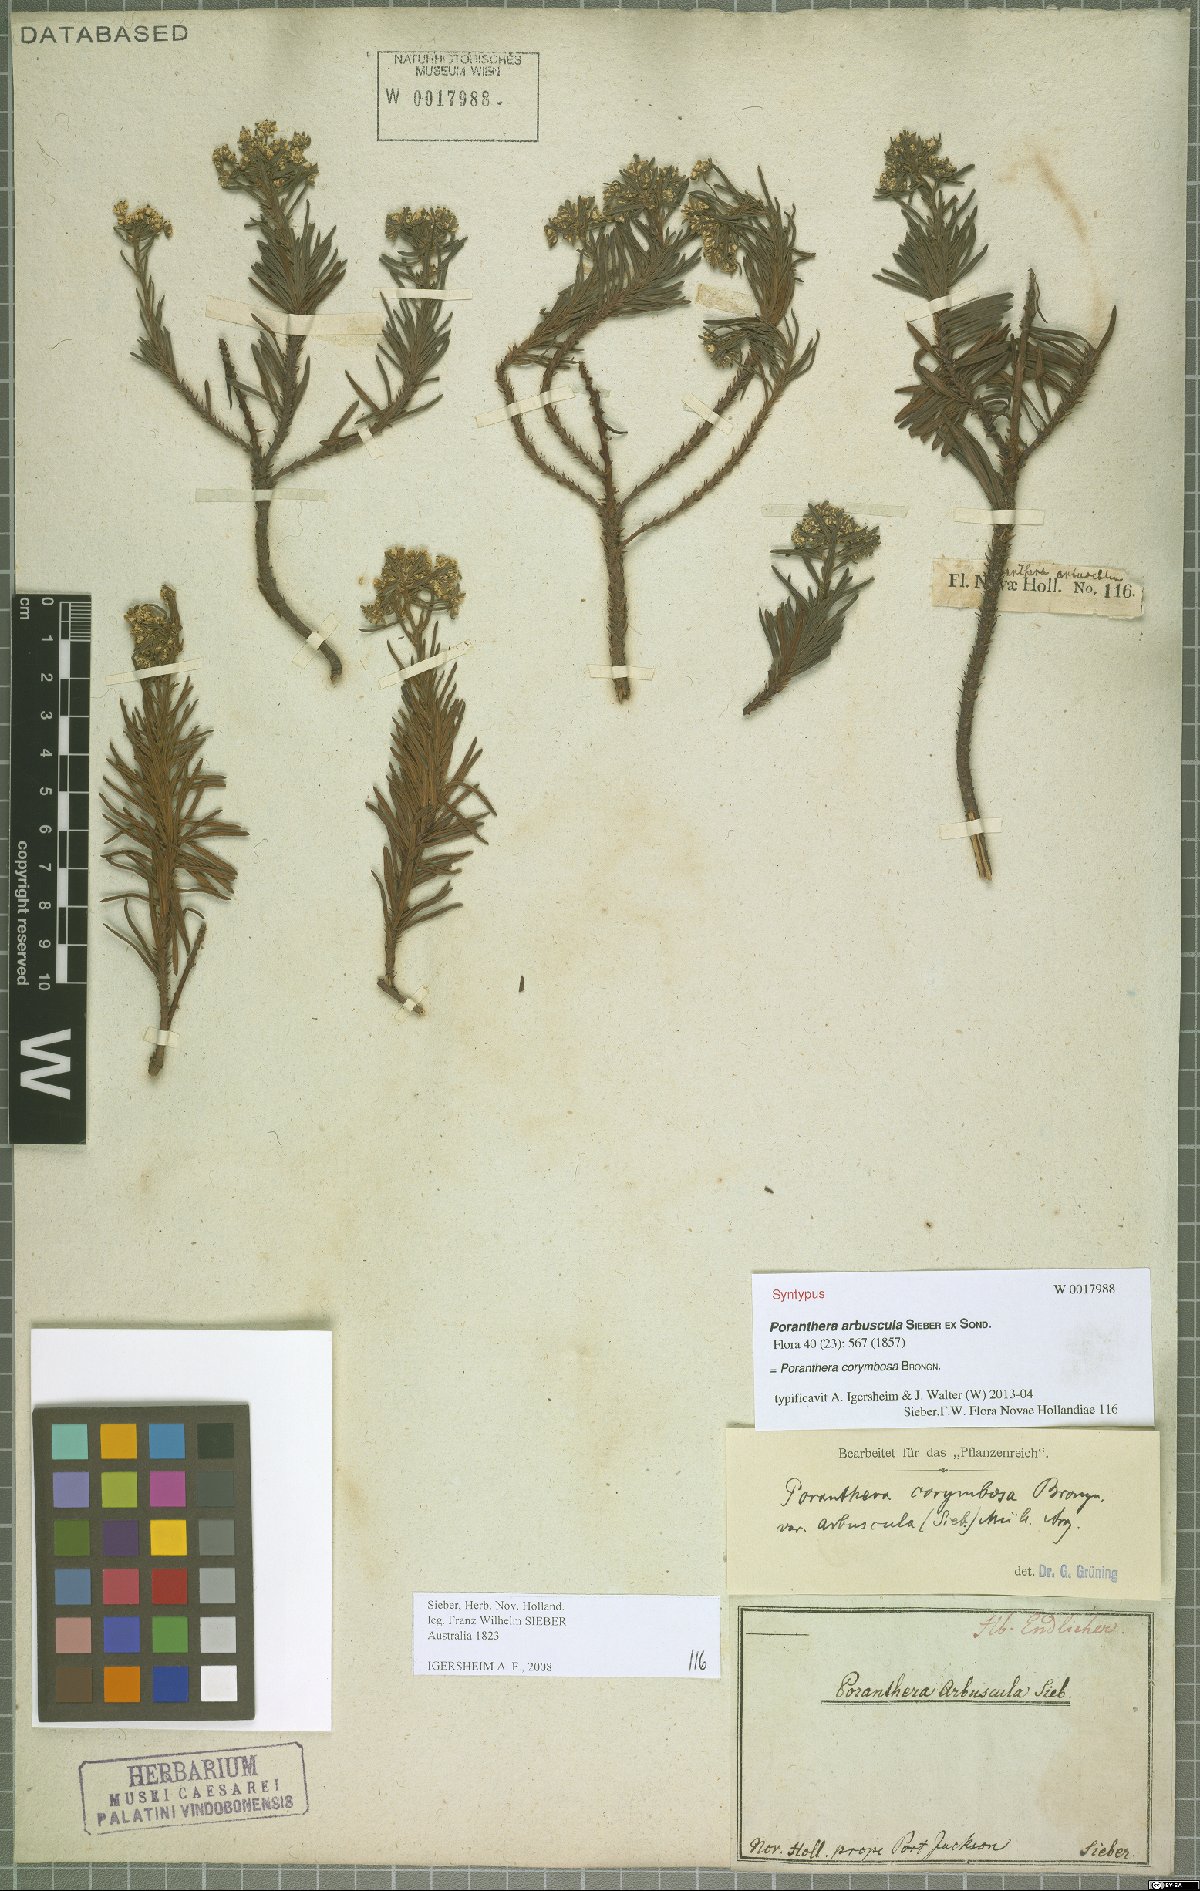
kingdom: Plantae
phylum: Tracheophyta
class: Magnoliopsida
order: Malpighiales
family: Phyllanthaceae
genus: Poranthera
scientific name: Poranthera corymbosa
